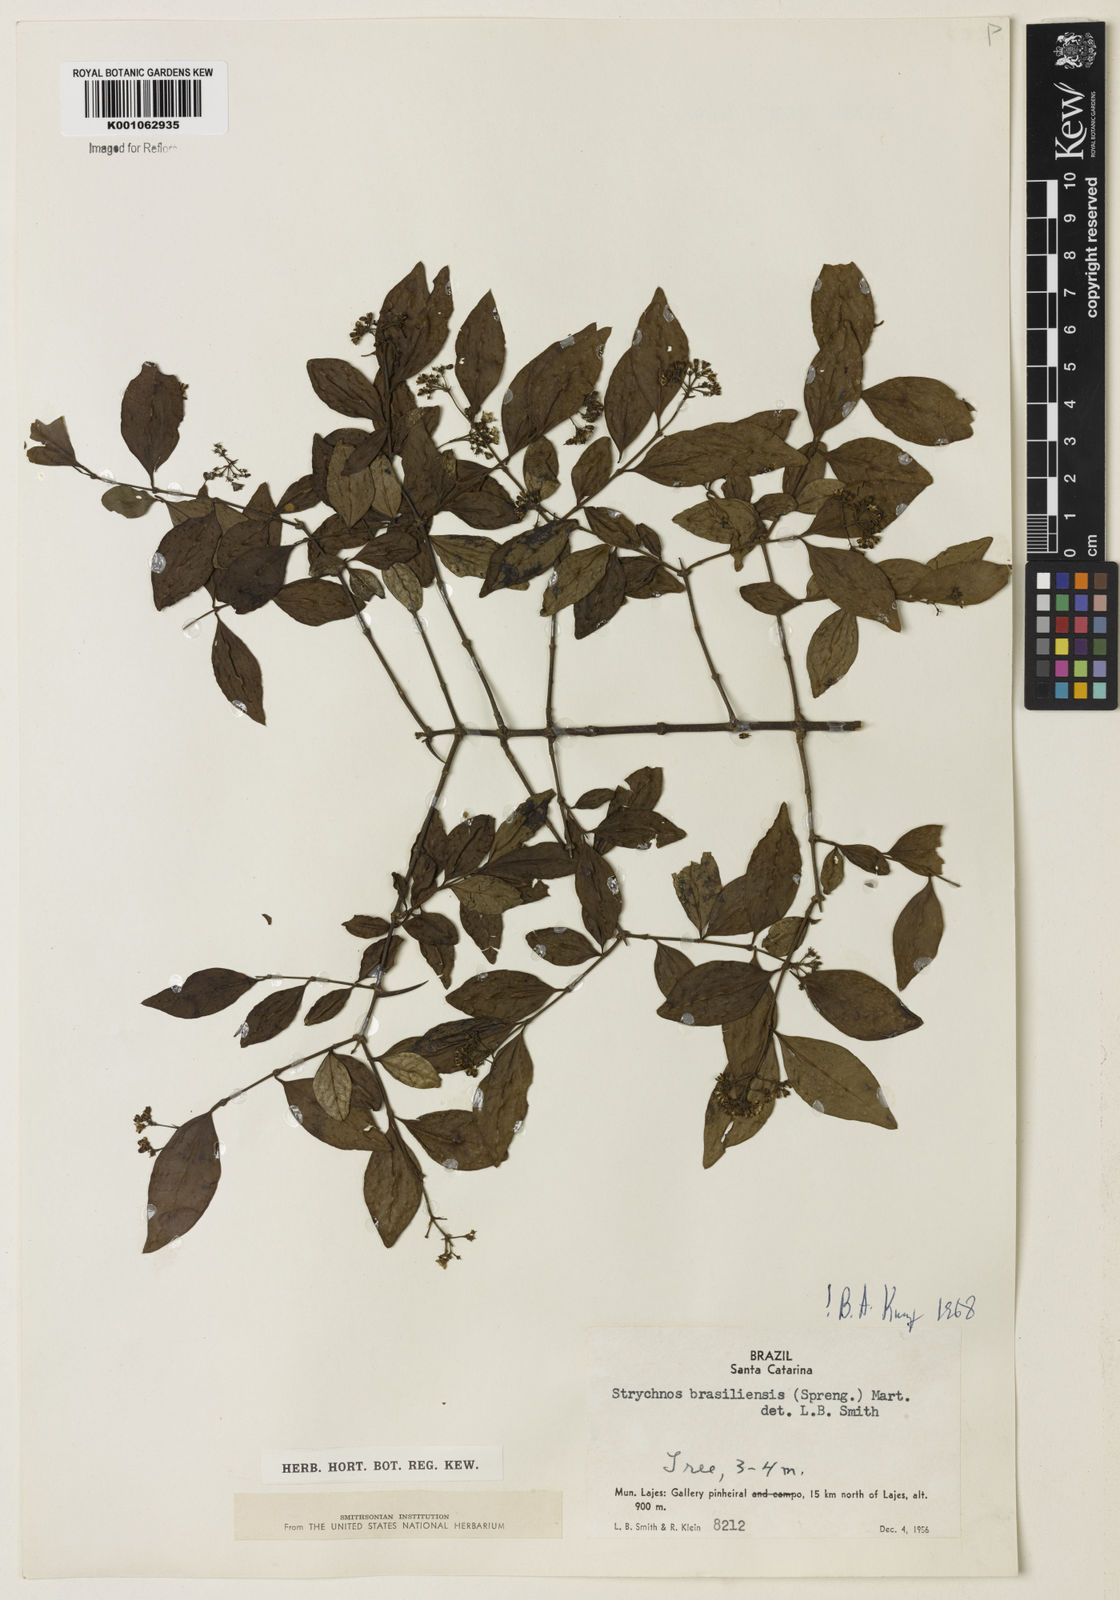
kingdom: Plantae
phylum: Tracheophyta
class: Magnoliopsida
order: Gentianales
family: Loganiaceae
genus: Strychnos
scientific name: Strychnos brasiliensis
